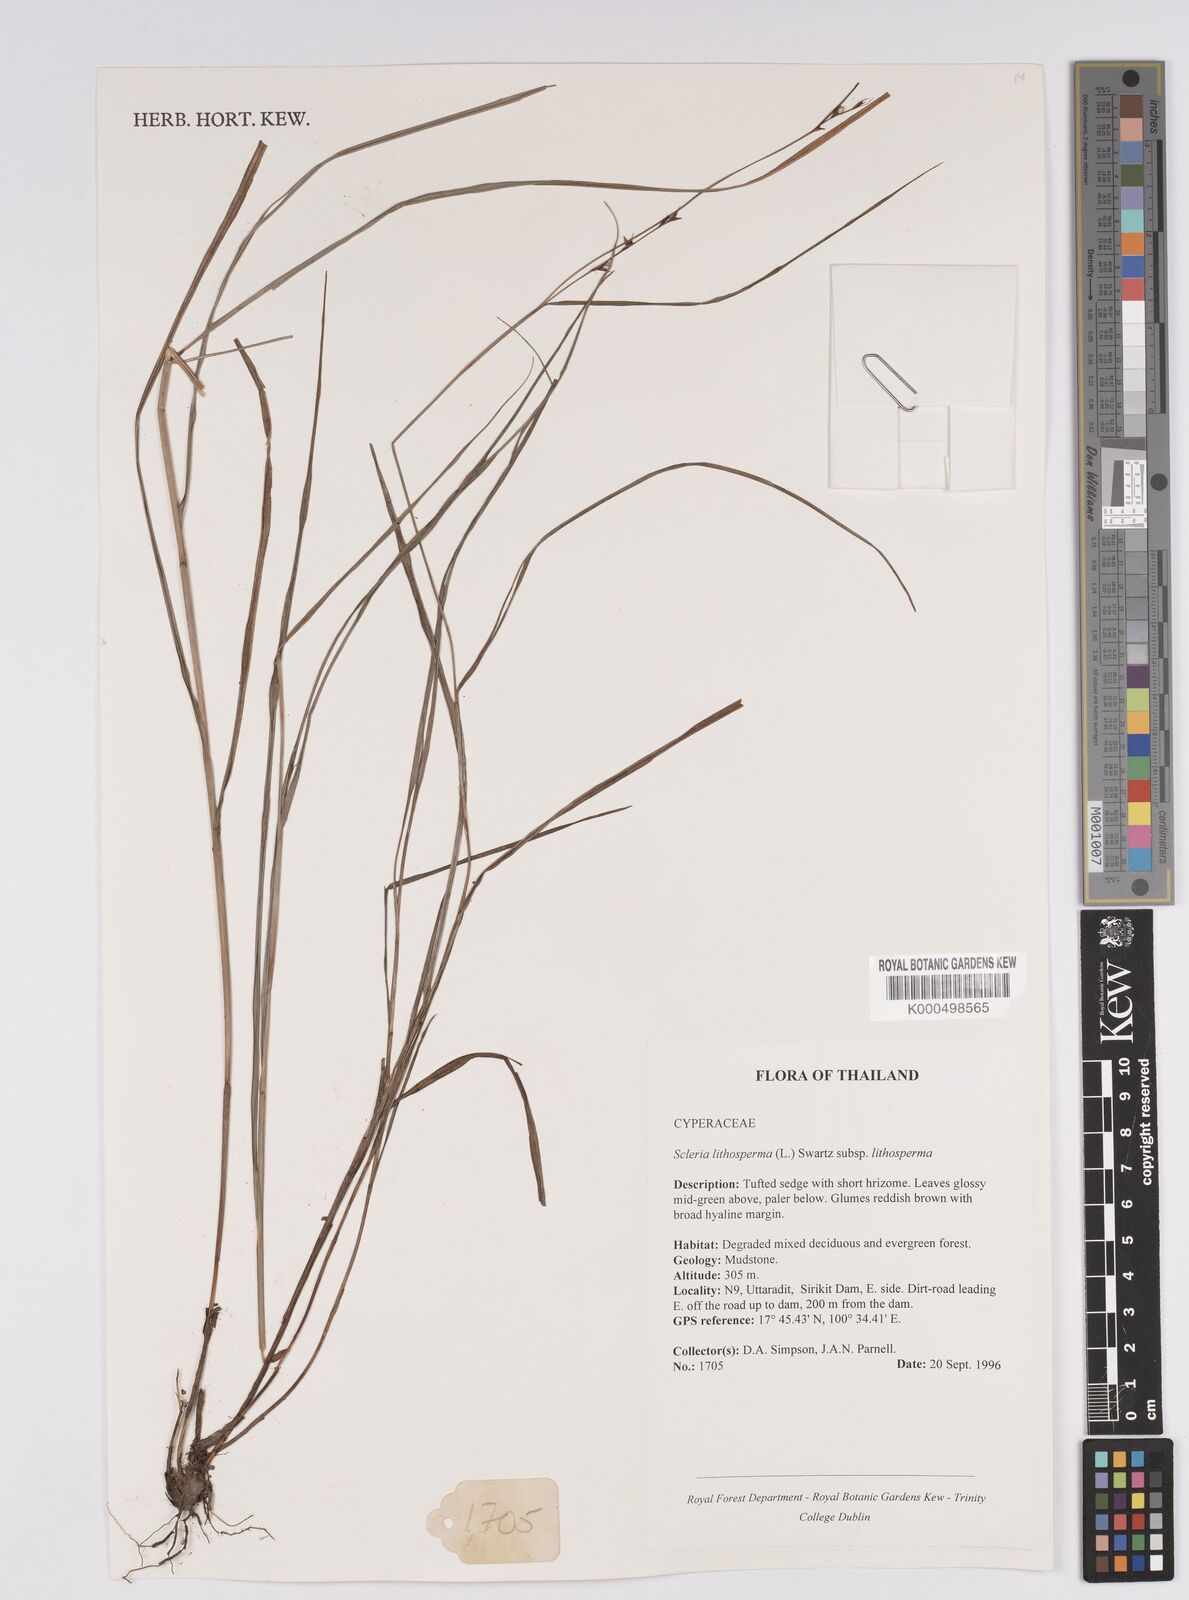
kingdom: Plantae
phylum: Tracheophyta
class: Liliopsida
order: Poales
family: Cyperaceae
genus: Scleria
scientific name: Scleria lithosperma
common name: Florida keys nut-rush
